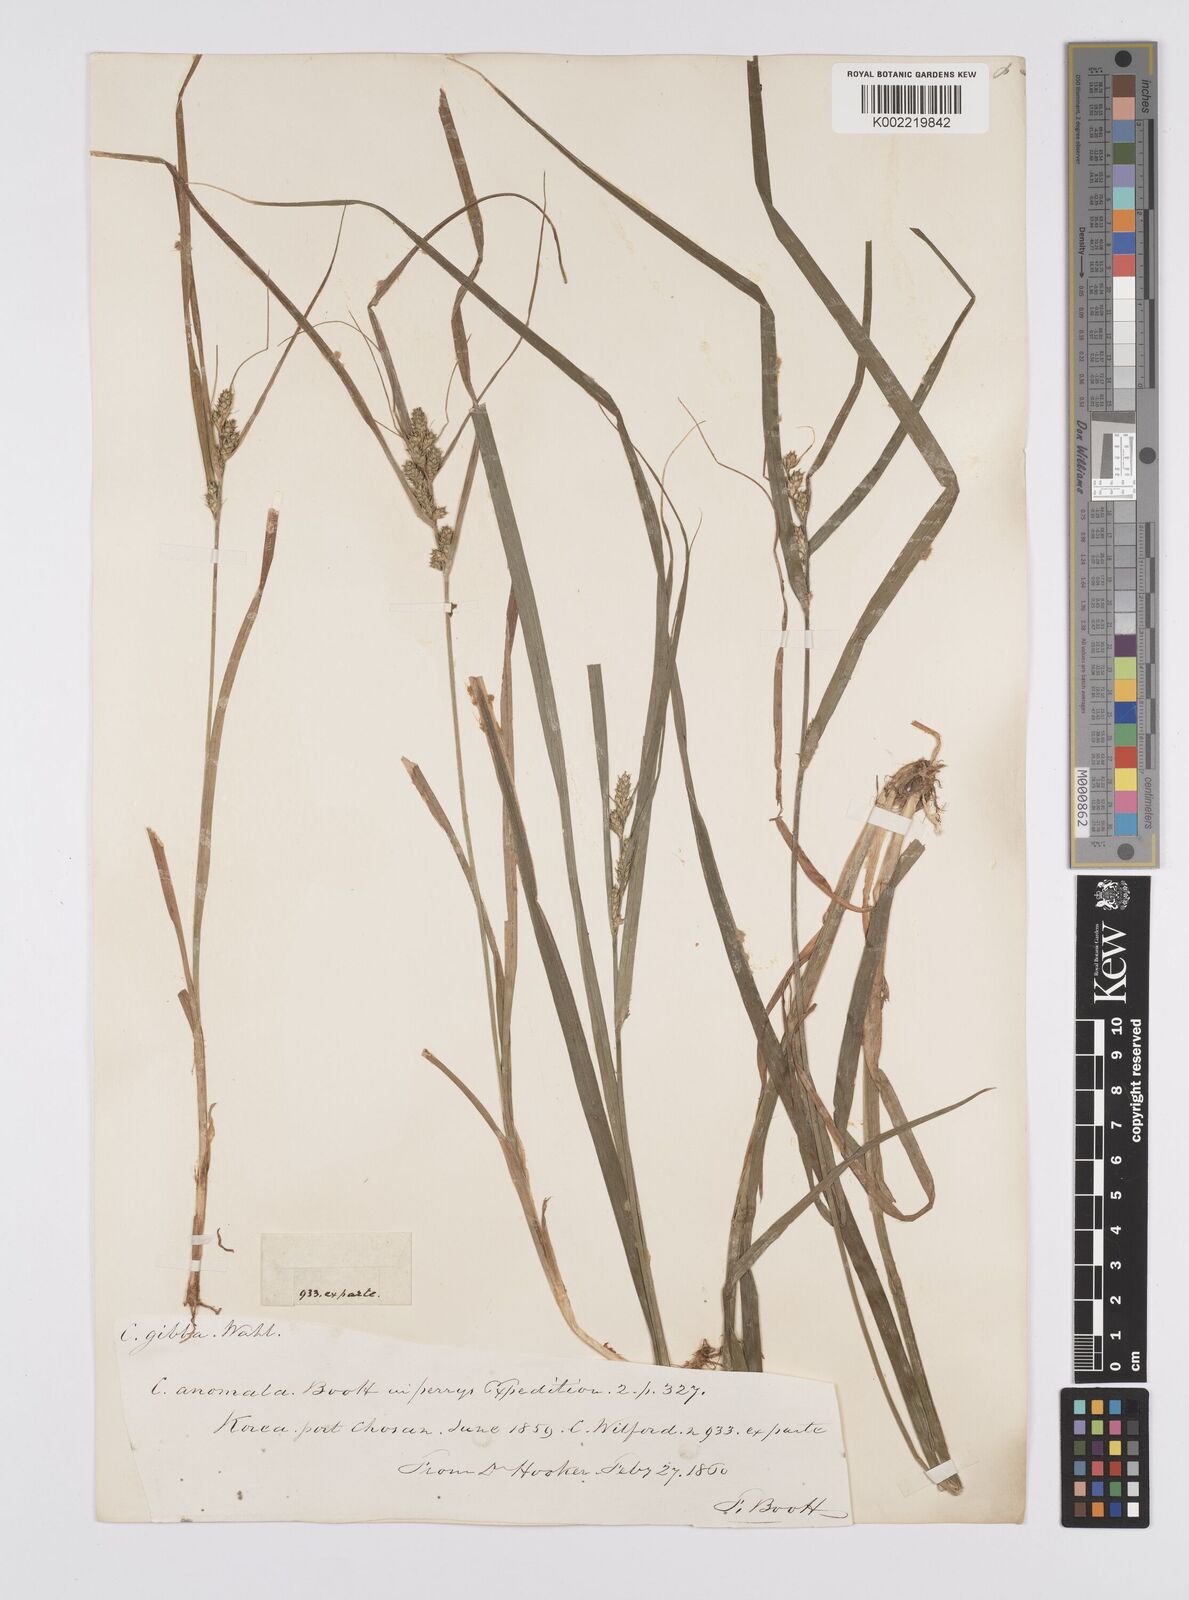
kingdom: Plantae
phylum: Tracheophyta
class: Liliopsida
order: Poales
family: Cyperaceae
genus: Carex
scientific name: Carex gibba
